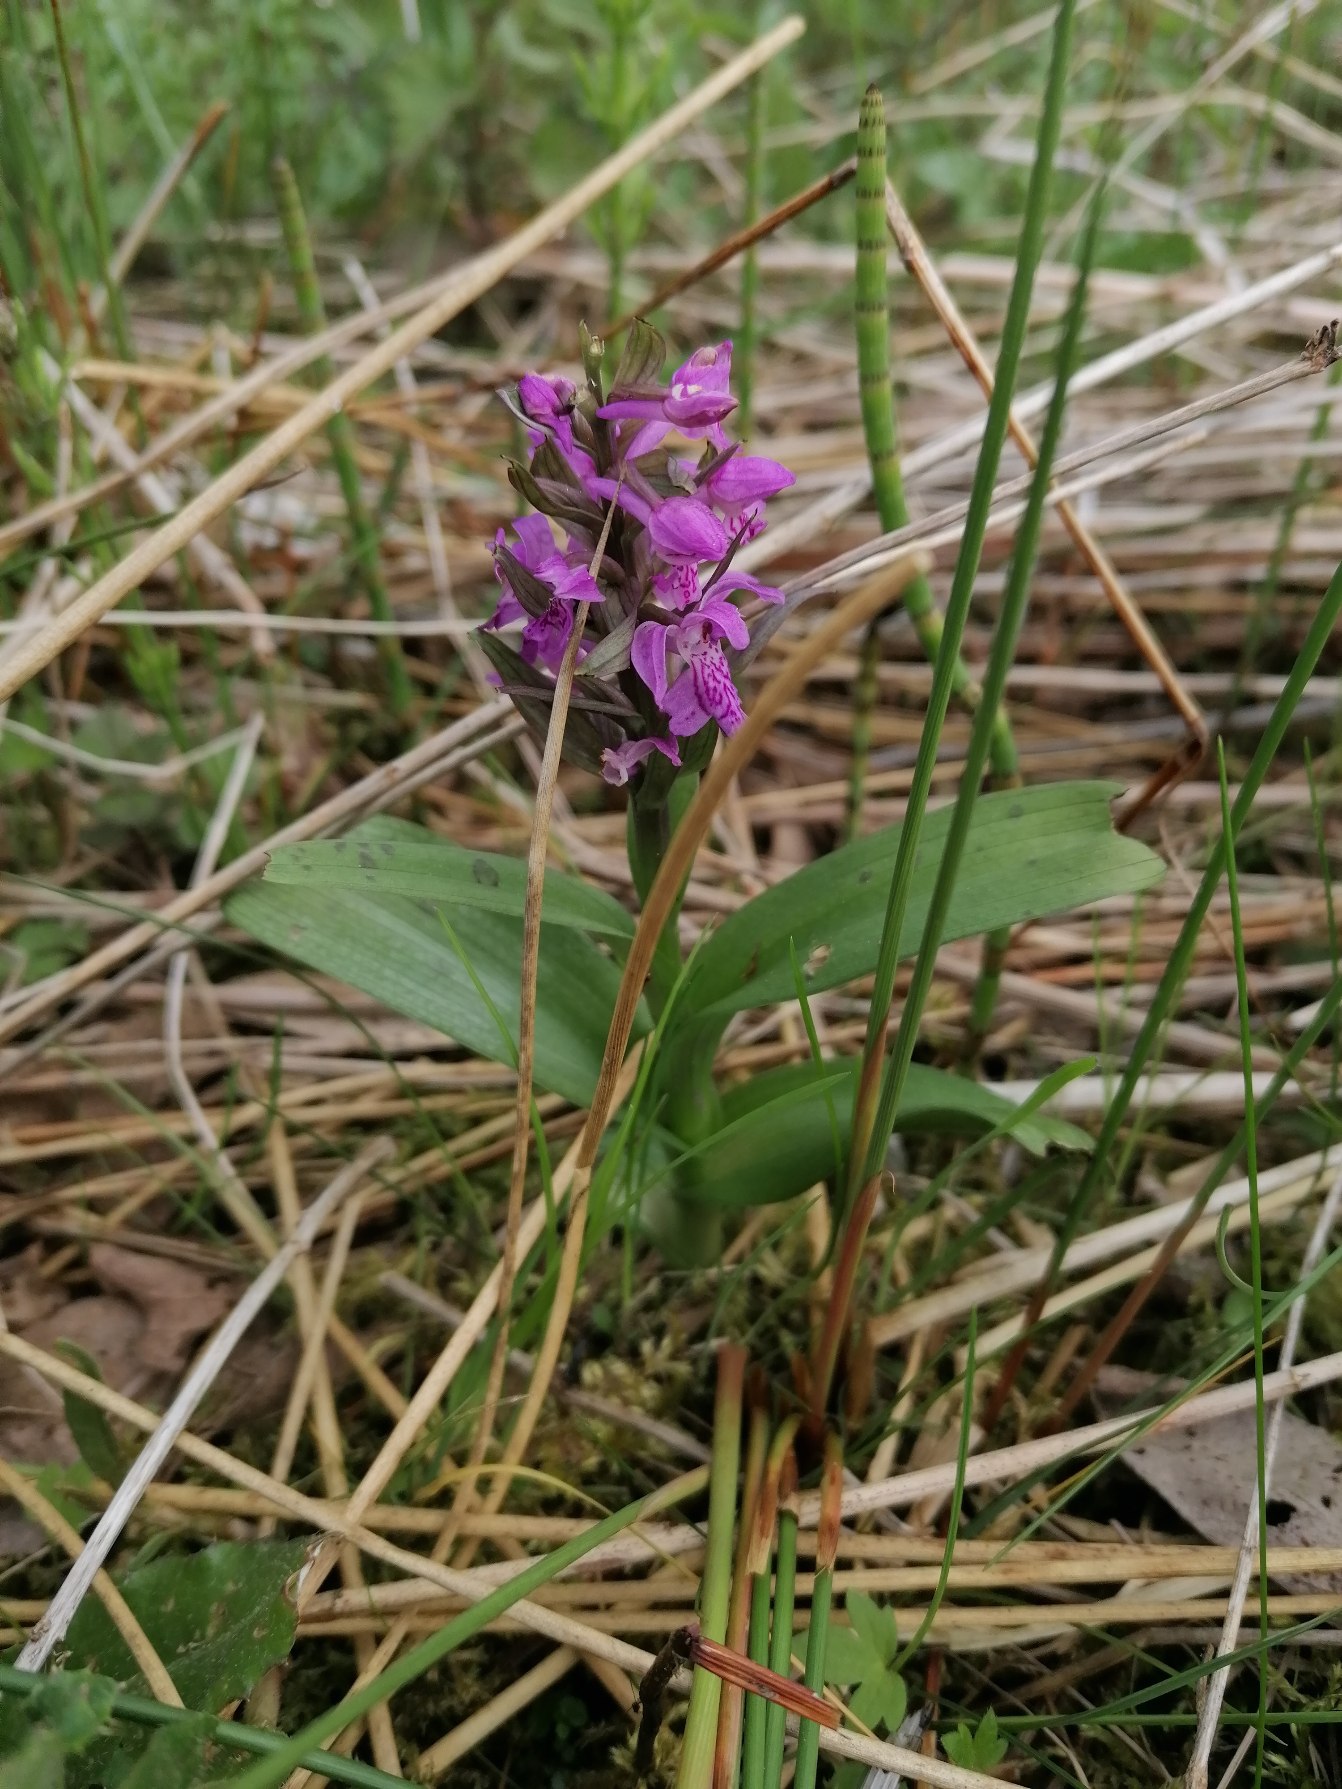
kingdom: Plantae
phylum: Tracheophyta
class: Liliopsida
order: Asparagales
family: Orchidaceae
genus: Dactylorhiza
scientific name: Dactylorhiza majalis
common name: Maj-gøgeurt
